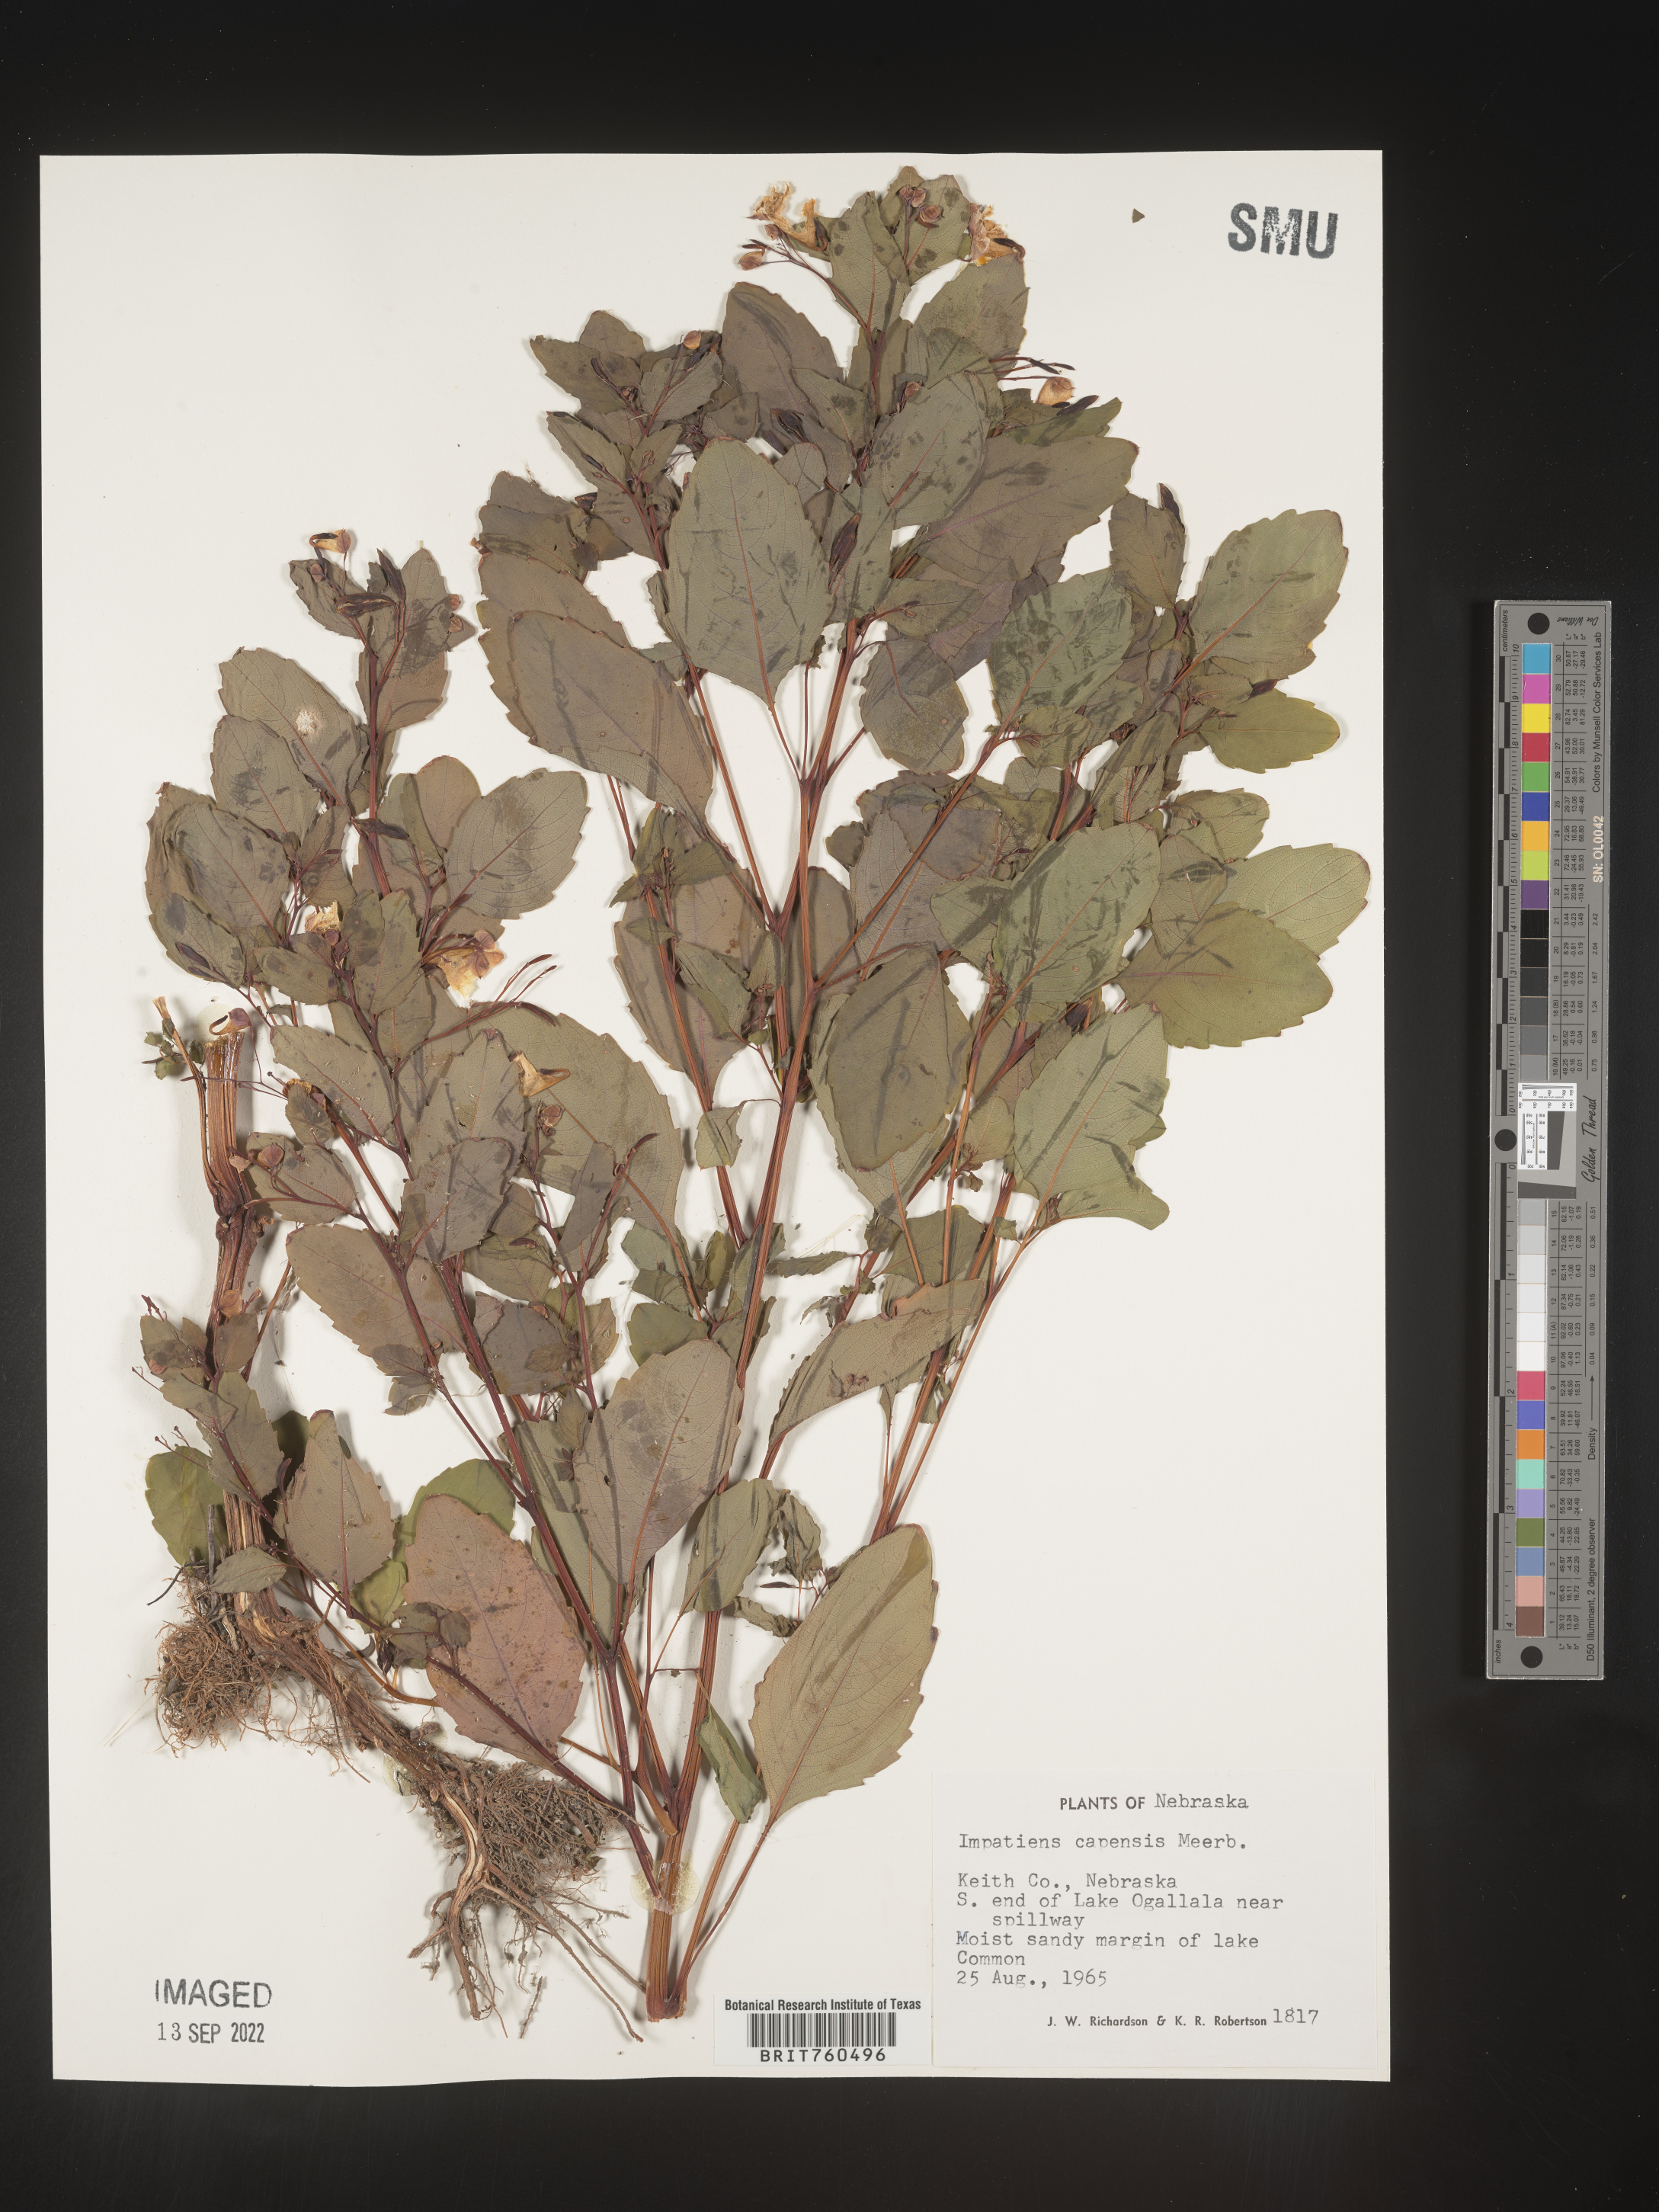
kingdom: Plantae
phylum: Tracheophyta
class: Magnoliopsida
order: Ericales
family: Balsaminaceae
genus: Impatiens
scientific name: Impatiens capensis
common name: Orange balsam
